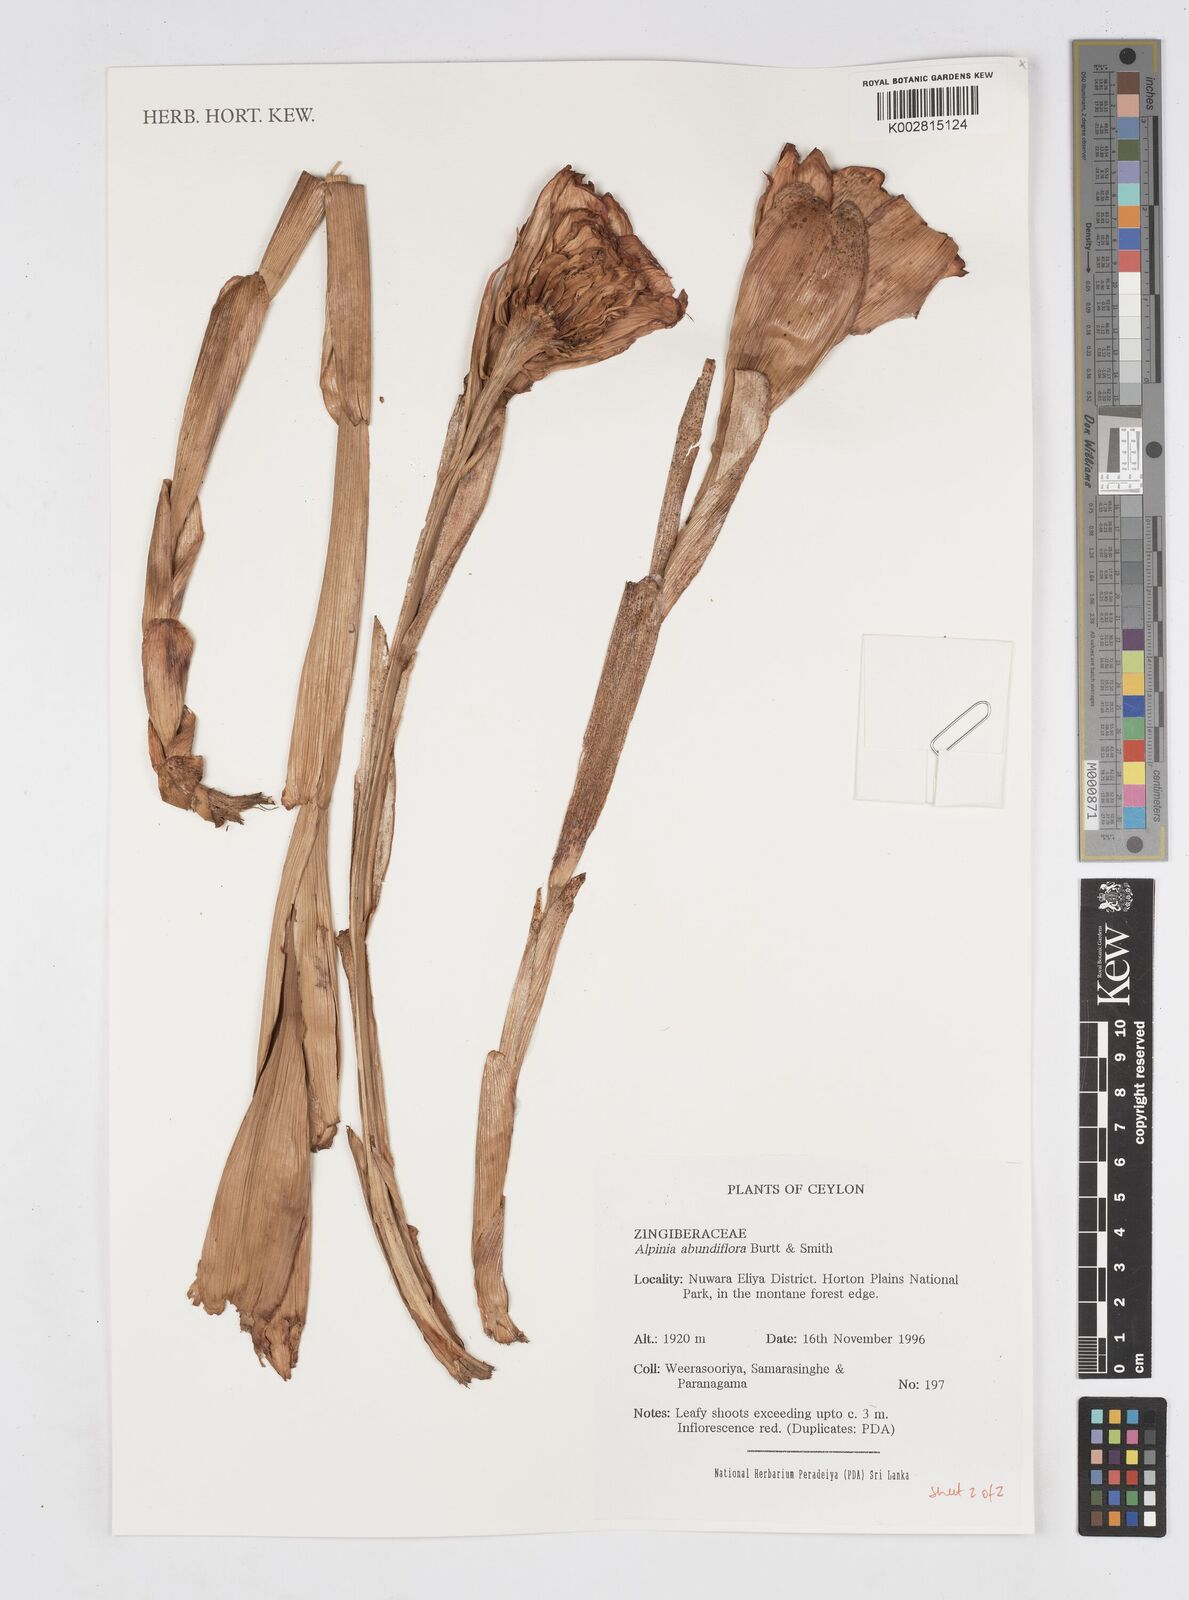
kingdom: Plantae
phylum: Tracheophyta
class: Liliopsida
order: Zingiberales
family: Zingiberaceae
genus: Alpinia
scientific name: Alpinia abundiflora
